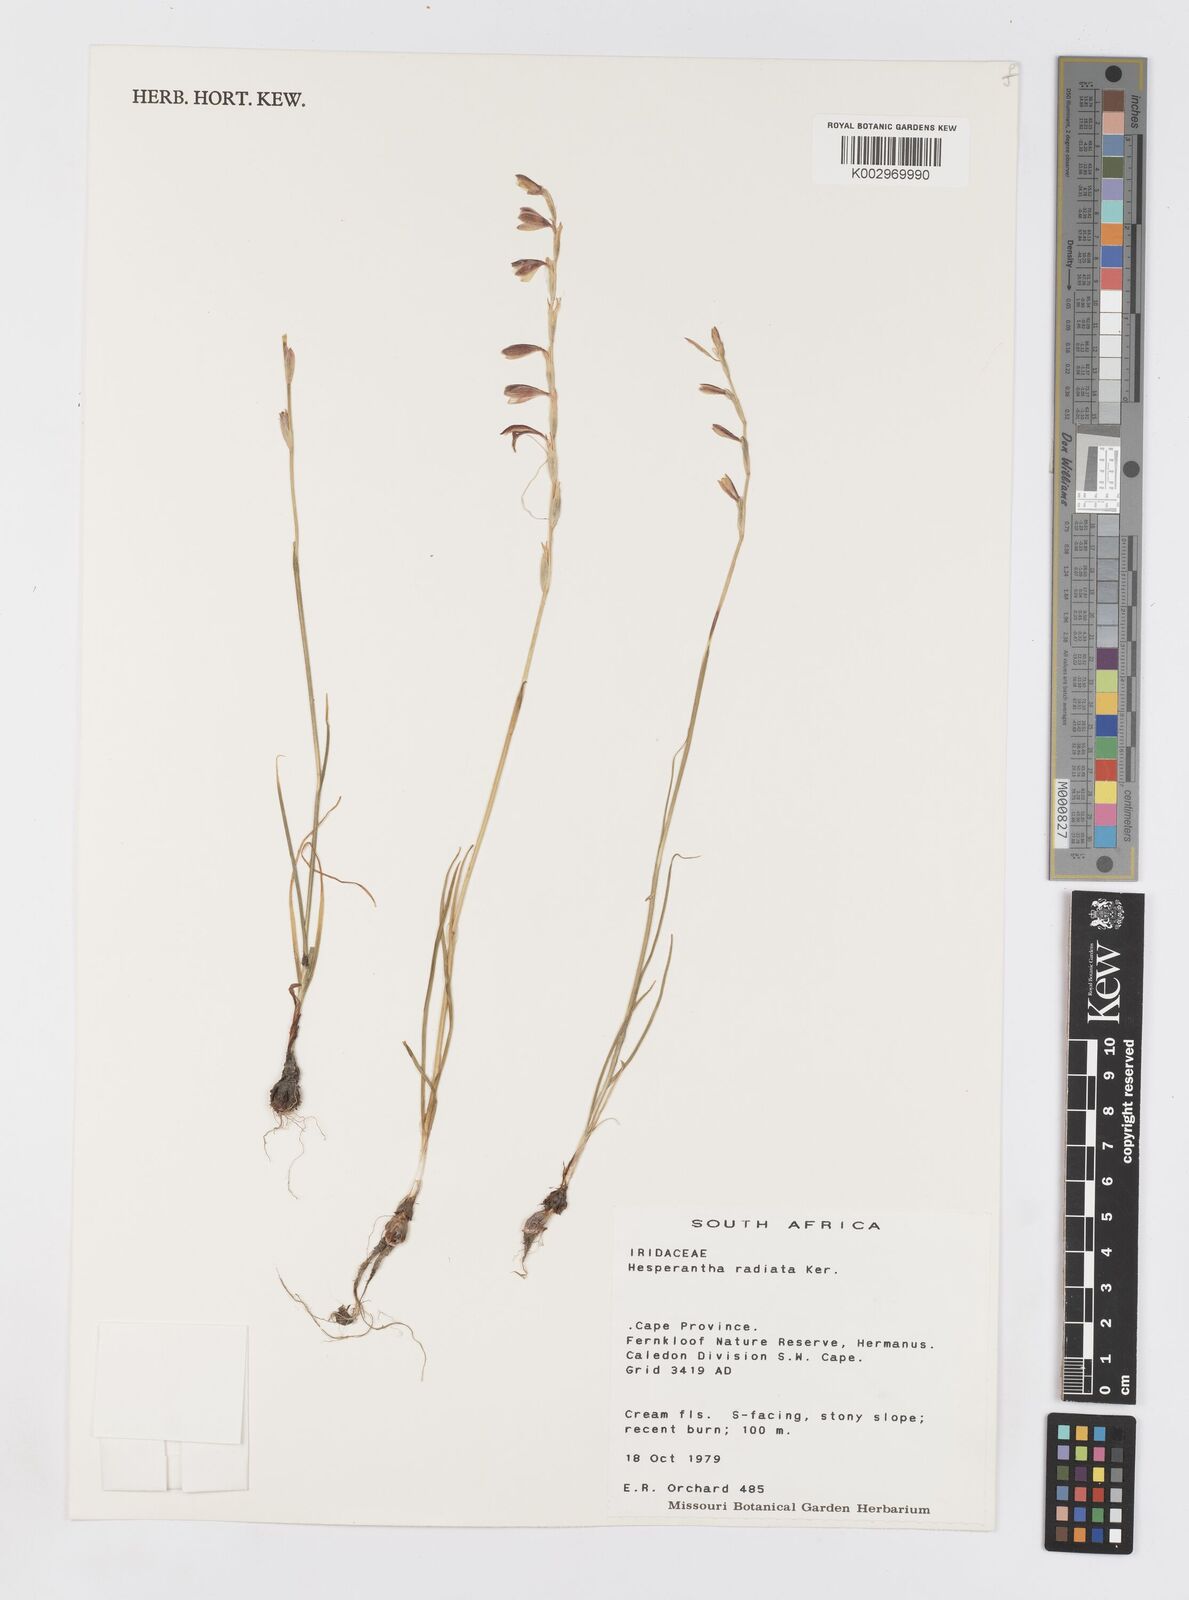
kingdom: Plantae
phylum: Tracheophyta
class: Liliopsida
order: Asparagales
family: Iridaceae
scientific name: Iridaceae
